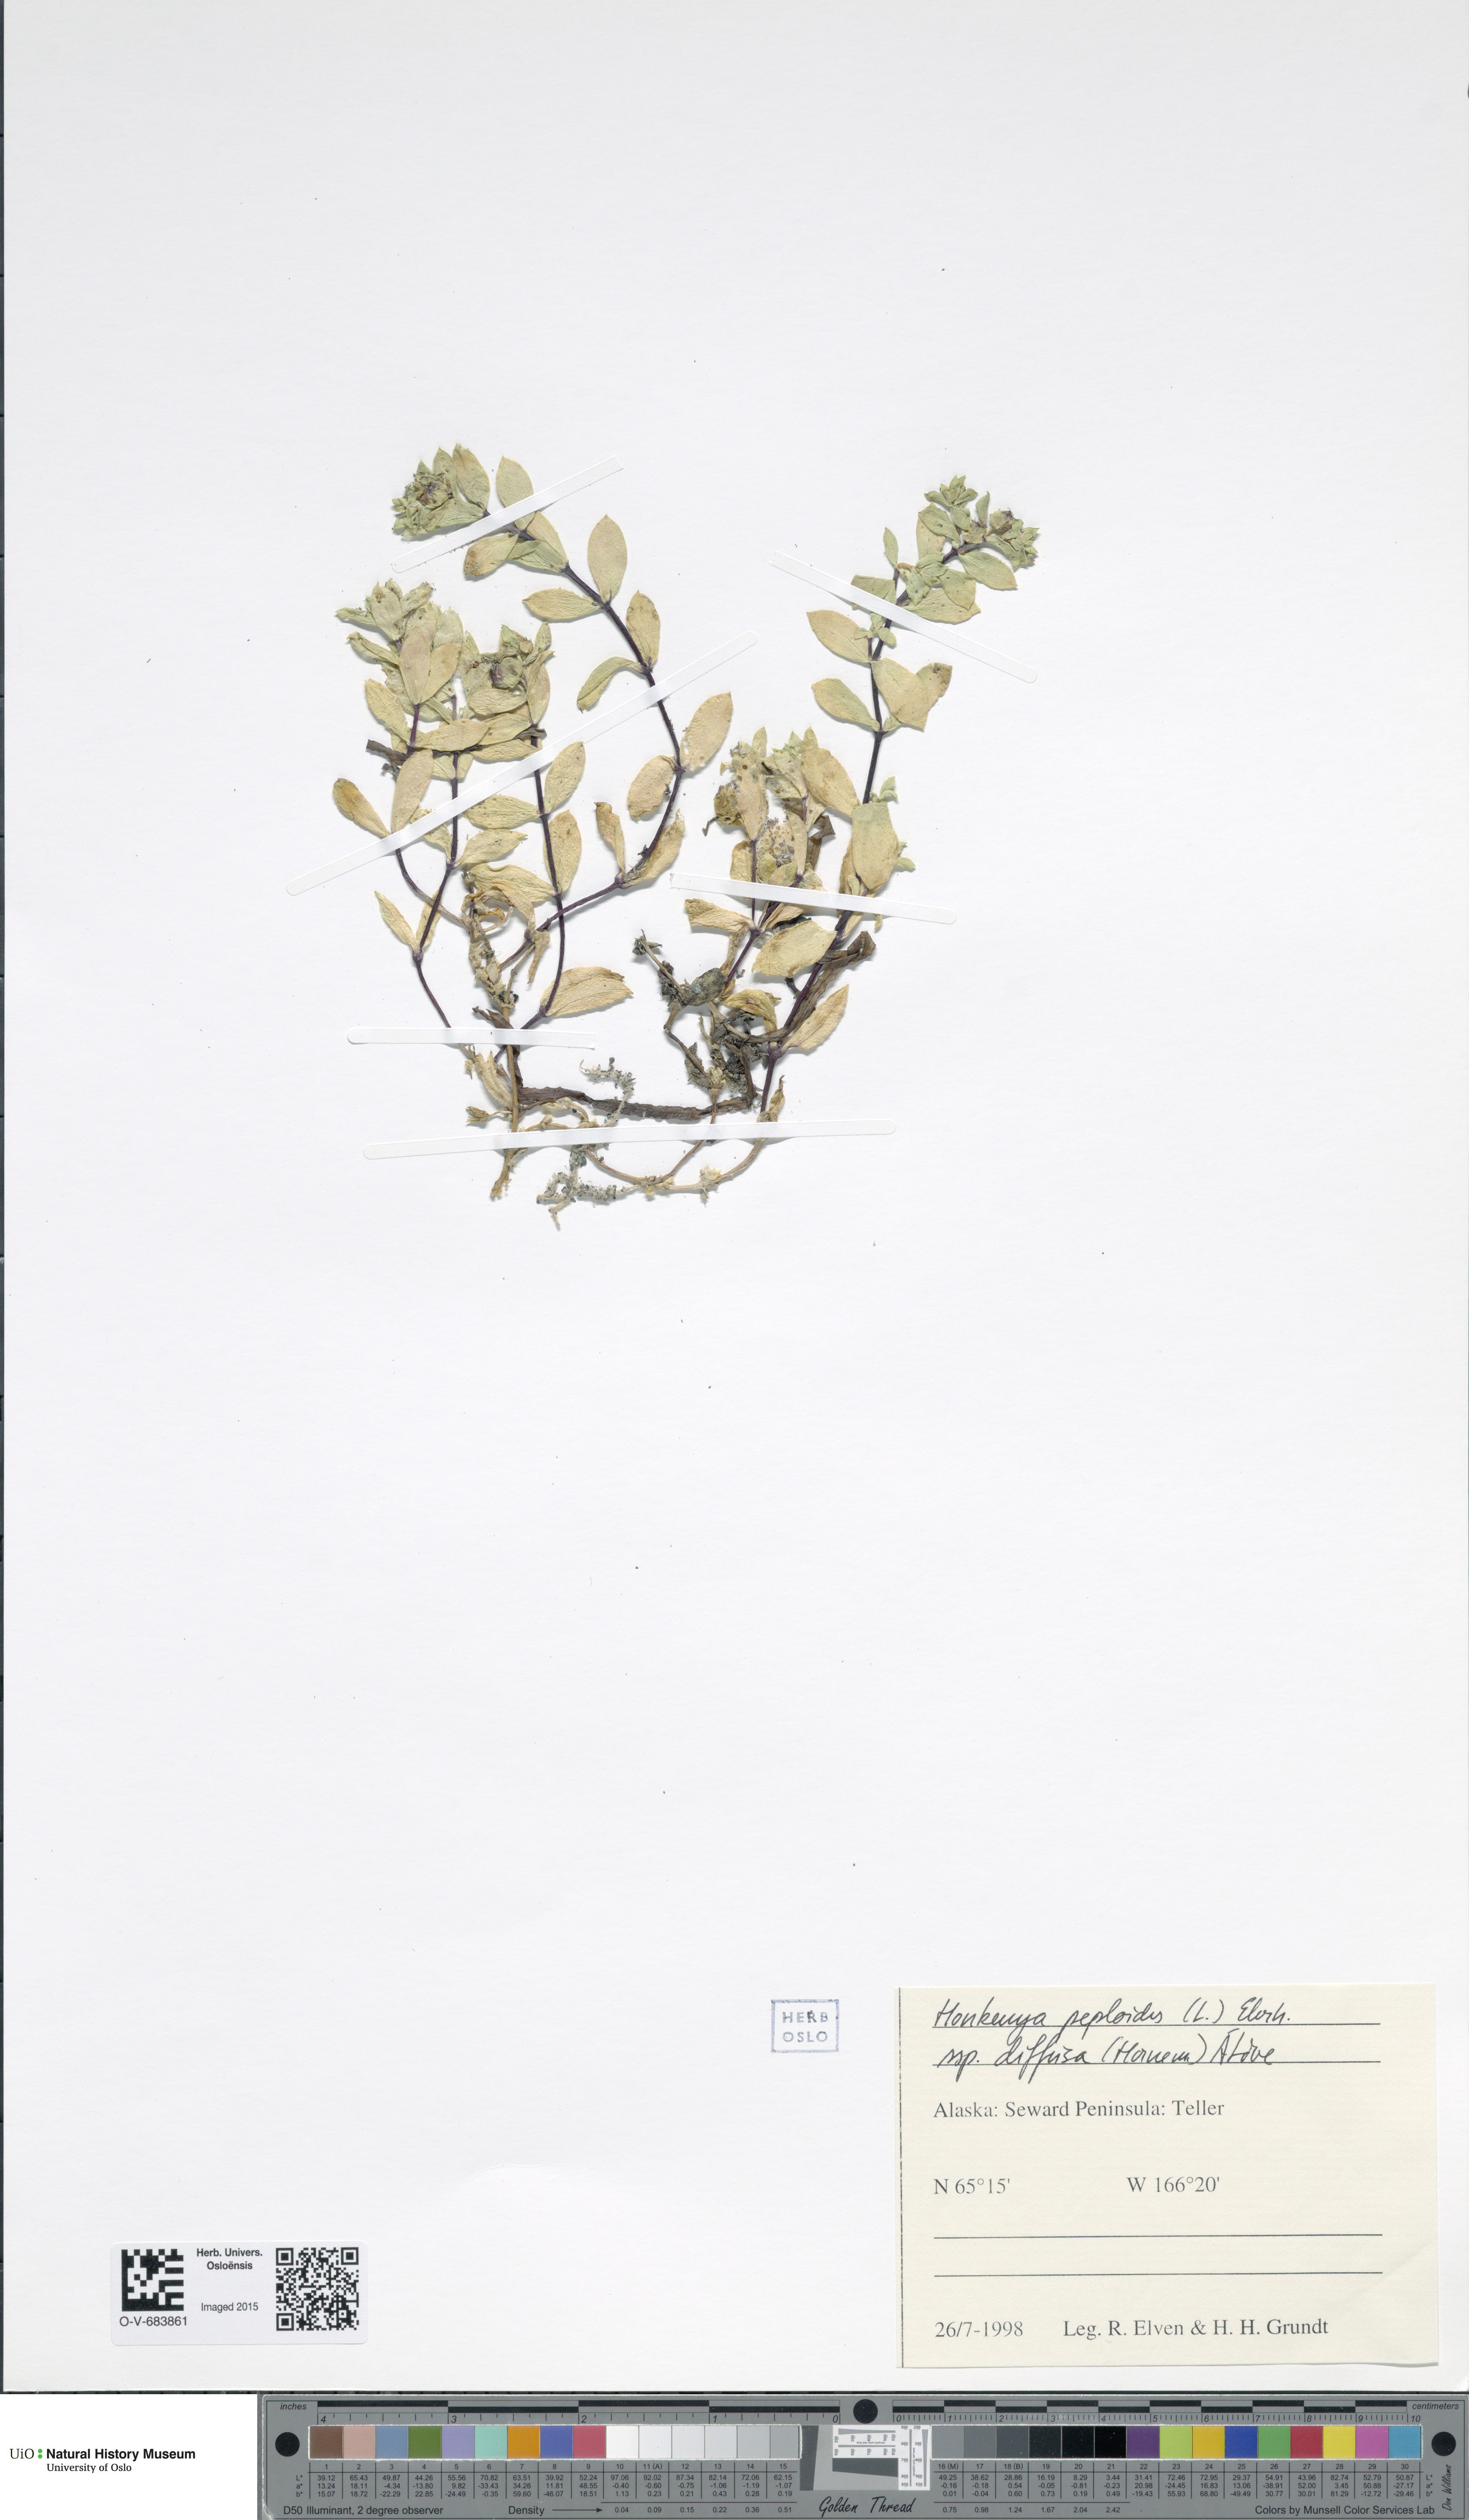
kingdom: Plantae
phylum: Tracheophyta
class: Magnoliopsida
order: Caryophyllales
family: Caryophyllaceae
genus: Honckenya
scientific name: Honckenya peploides
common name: Sea sandwort
